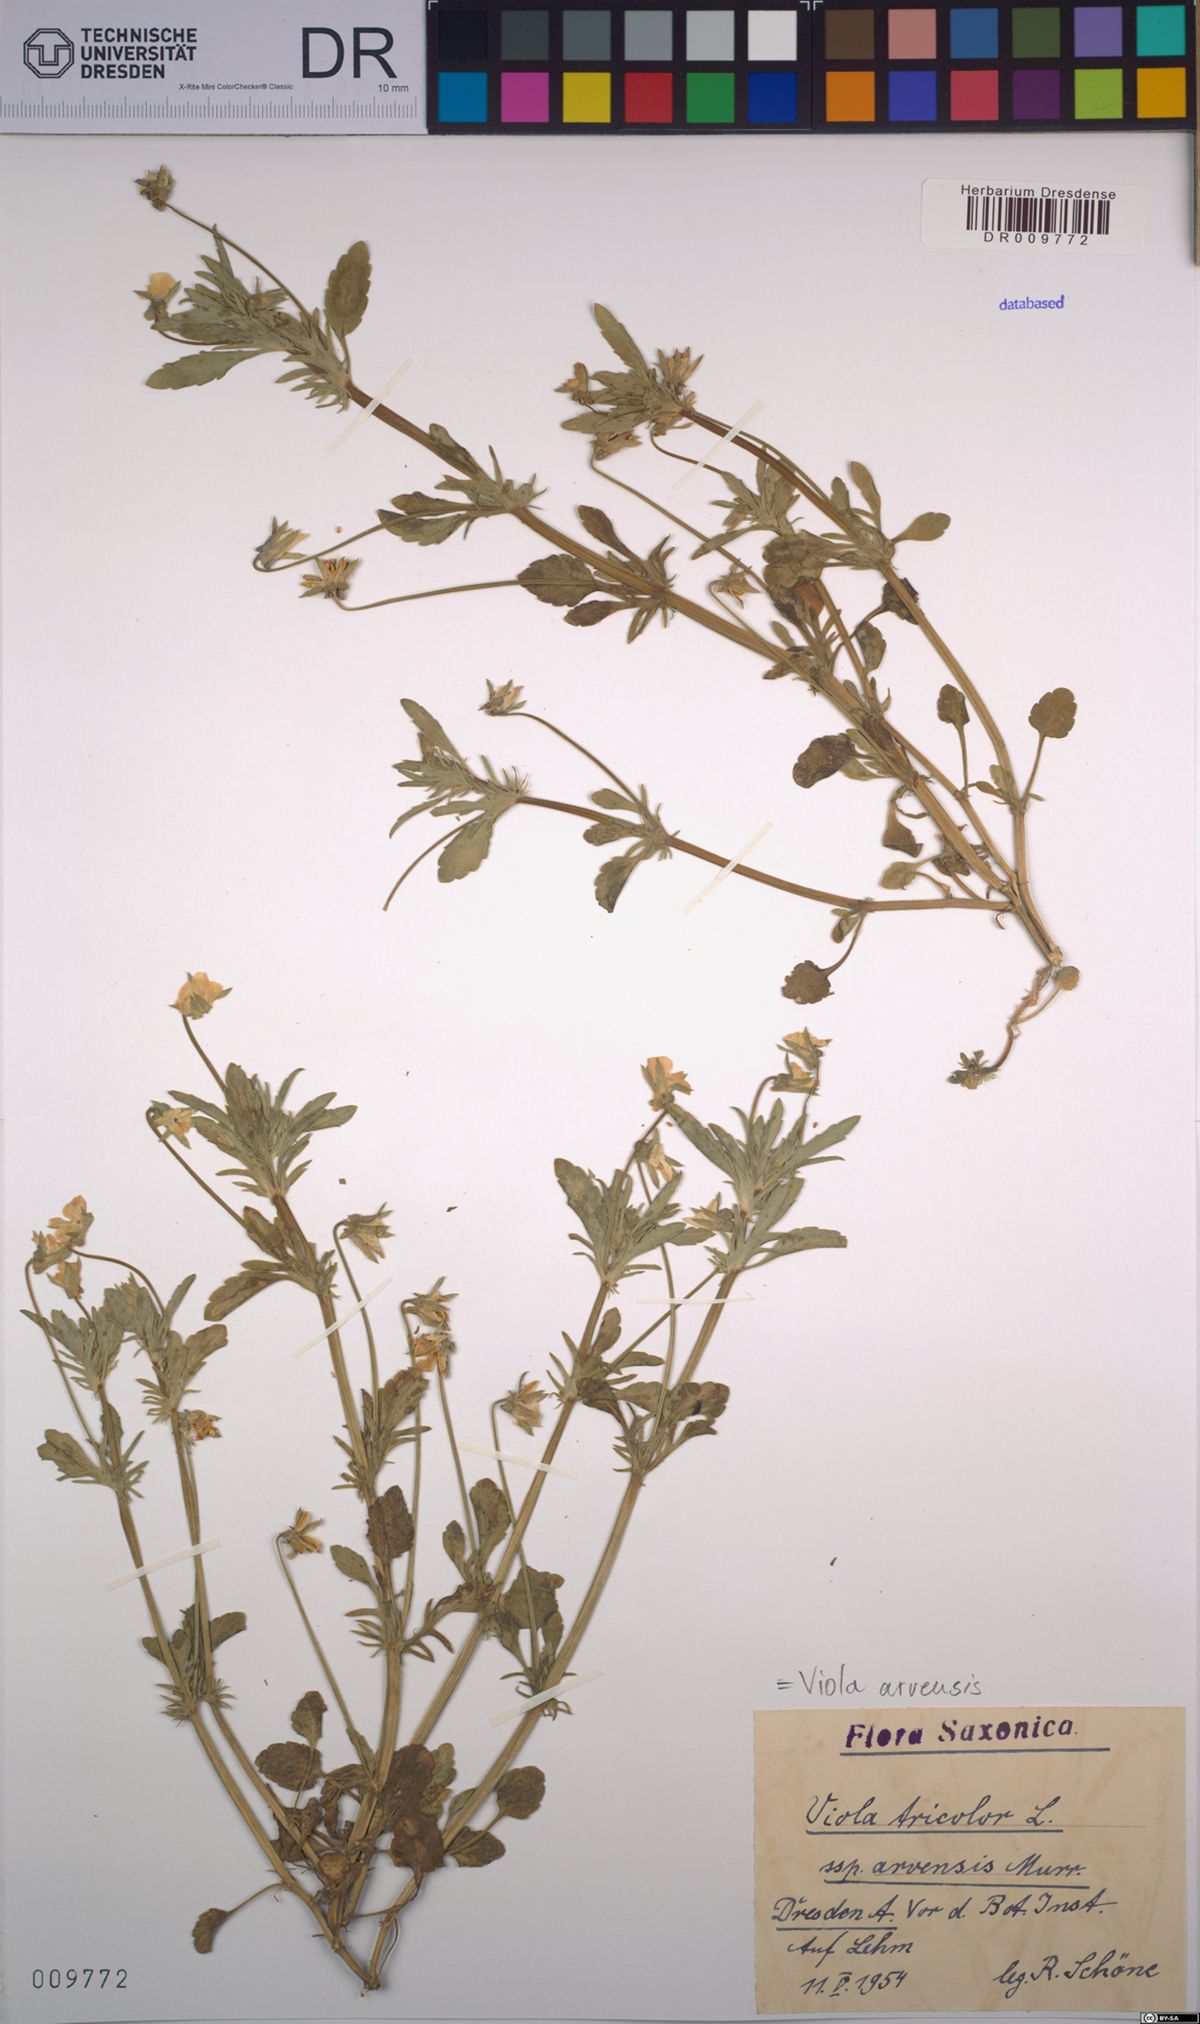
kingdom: Plantae
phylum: Tracheophyta
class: Magnoliopsida
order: Malpighiales
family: Violaceae
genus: Viola
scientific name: Viola arvensis
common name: Field pansy
